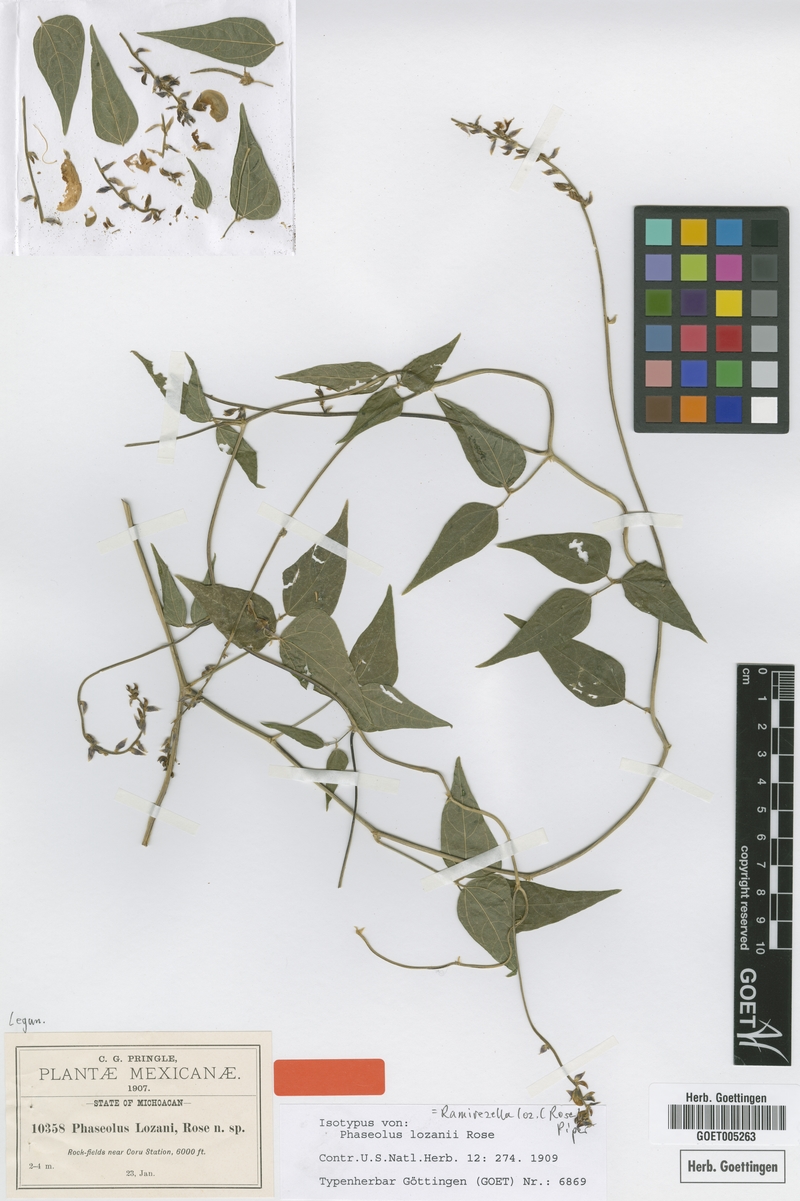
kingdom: Plantae
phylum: Tracheophyta
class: Magnoliopsida
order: Fabales
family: Fabaceae
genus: Ramirezella
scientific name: Ramirezella lozanii
